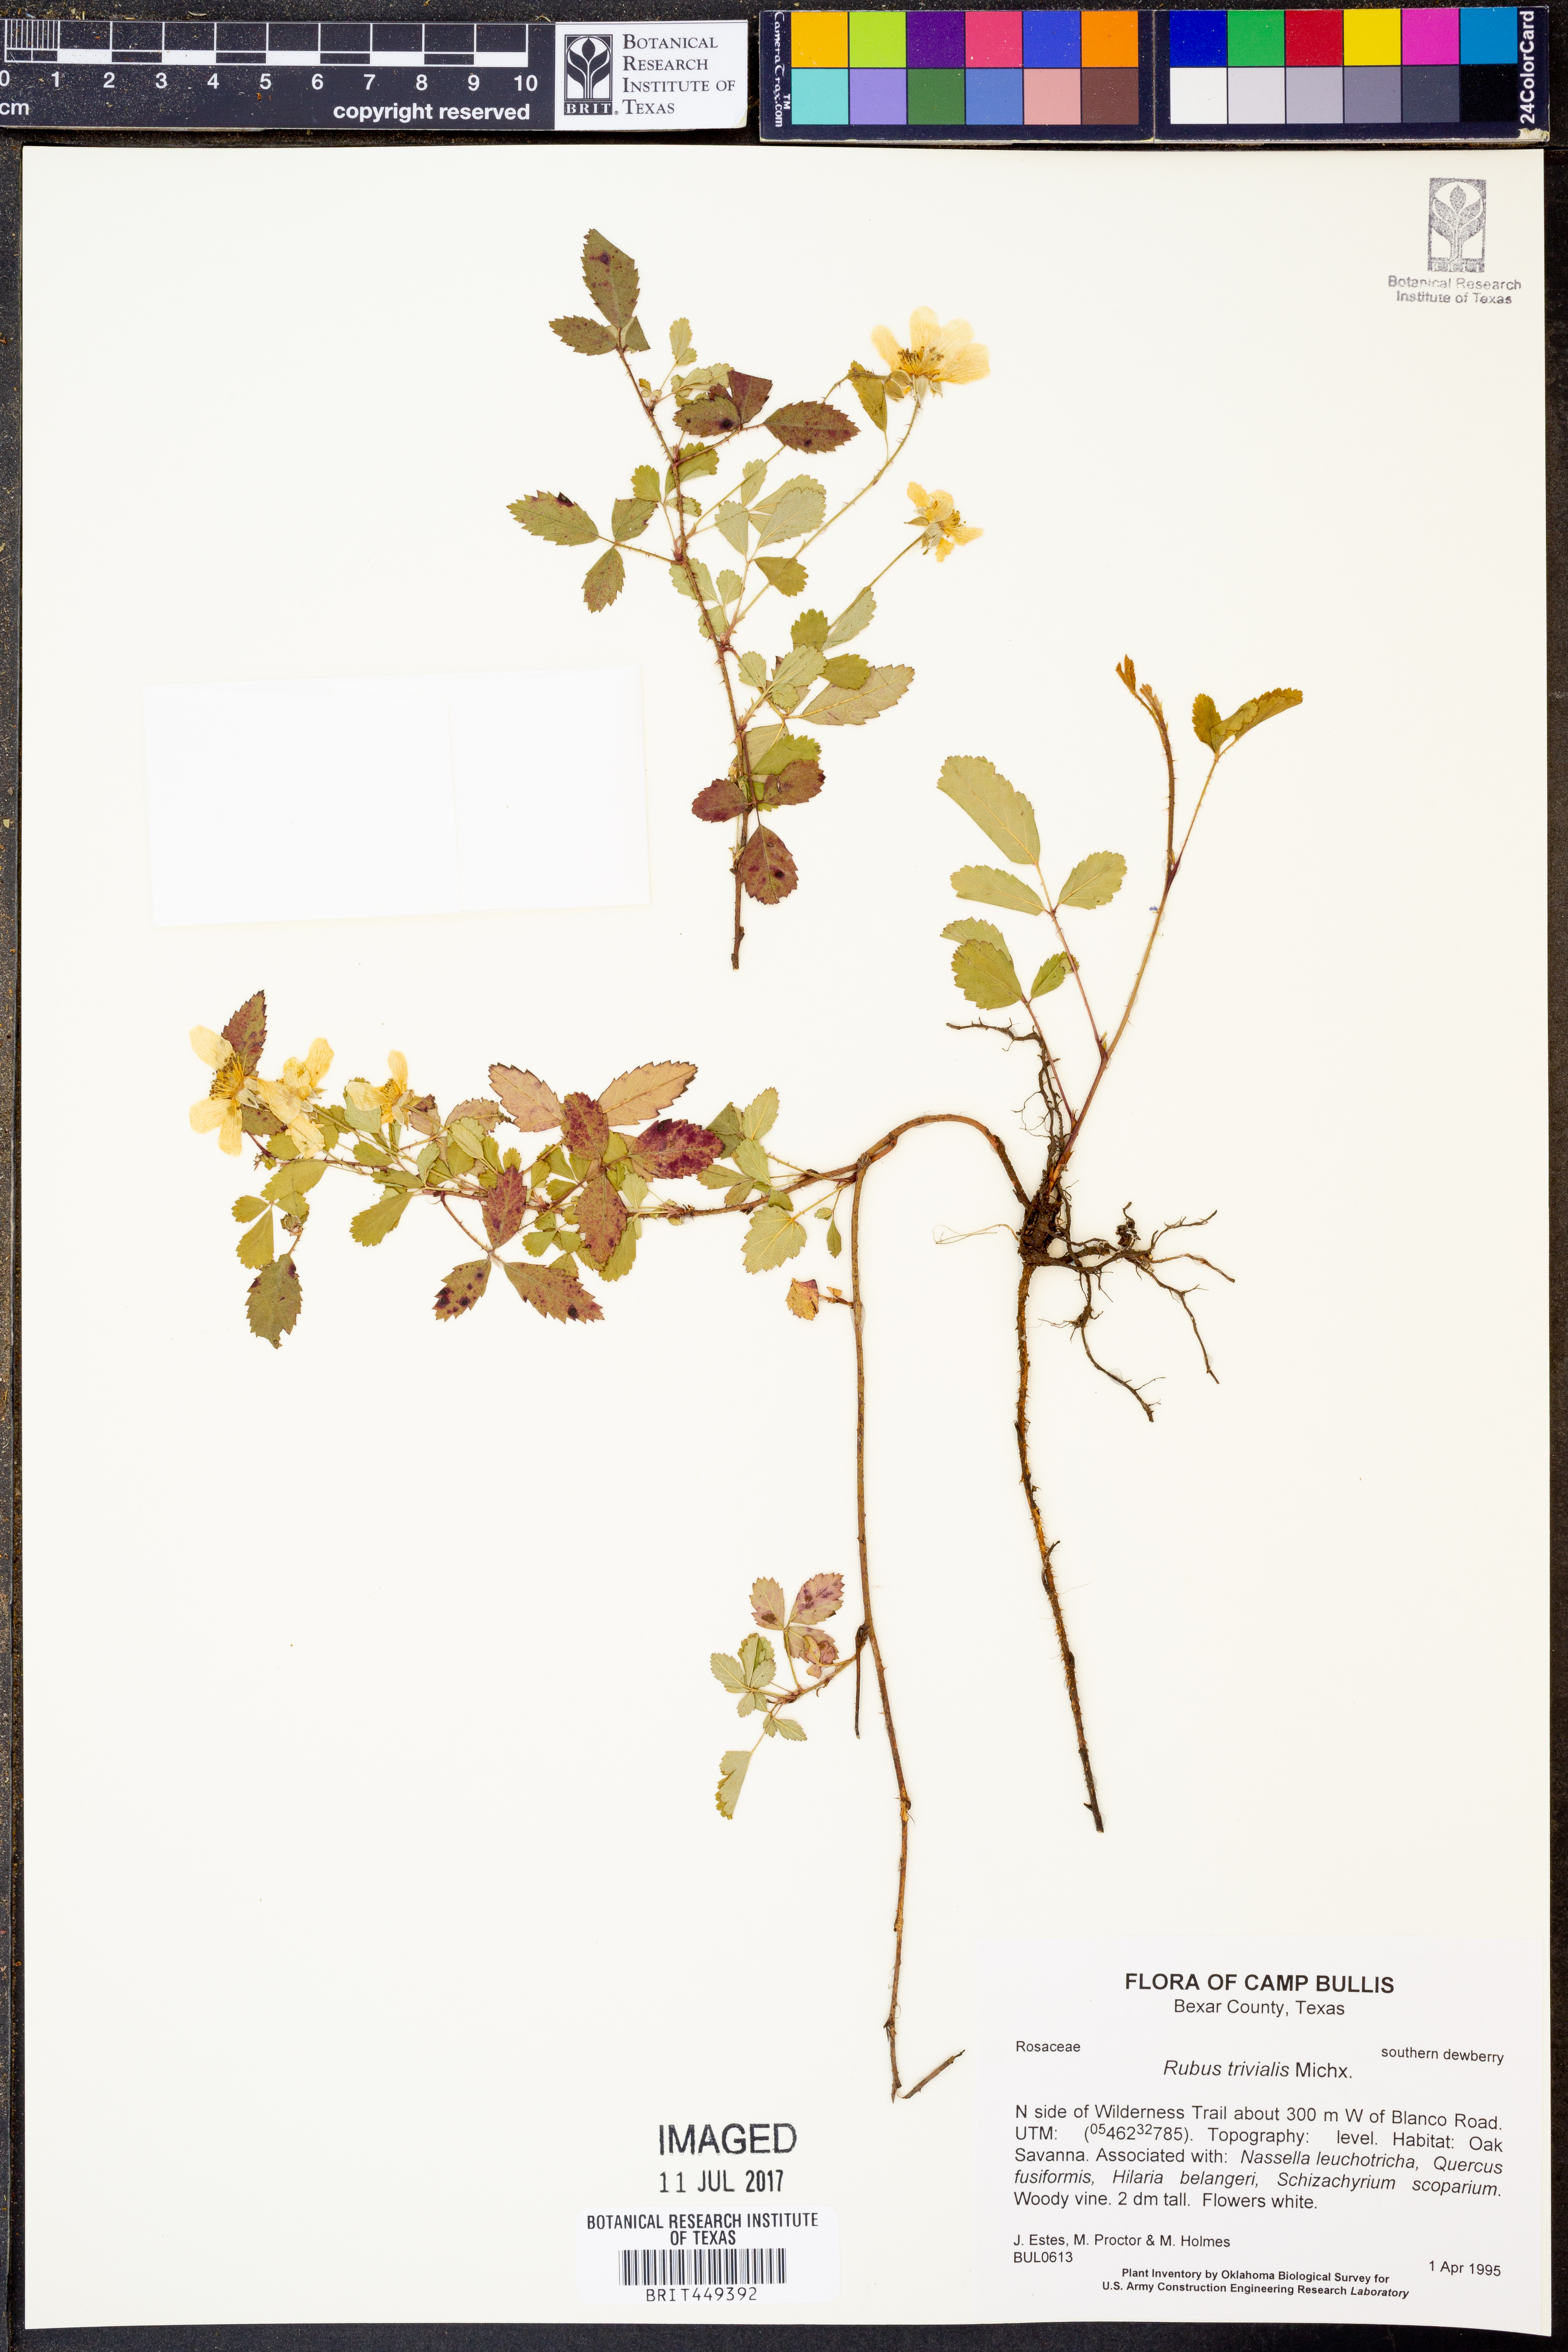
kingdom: Plantae
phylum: Tracheophyta
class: Magnoliopsida
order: Rosales
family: Rosaceae
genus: Rubus
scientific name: Rubus trivialis
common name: Southern dewberry
